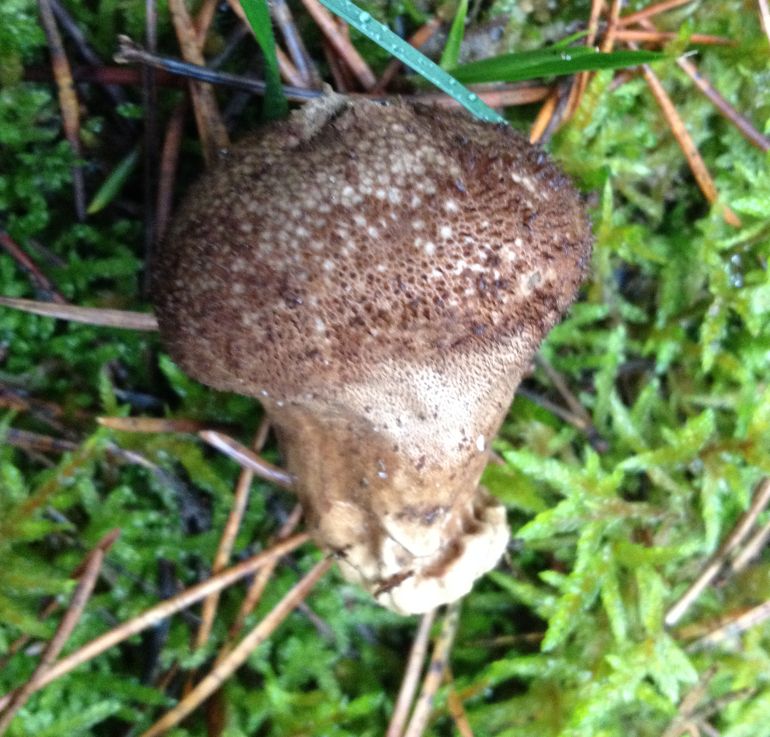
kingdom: Fungi
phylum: Basidiomycota
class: Agaricomycetes
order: Agaricales
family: Lycoperdaceae
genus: Lycoperdon
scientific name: Lycoperdon nigrescens
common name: sortagtig støvbold
